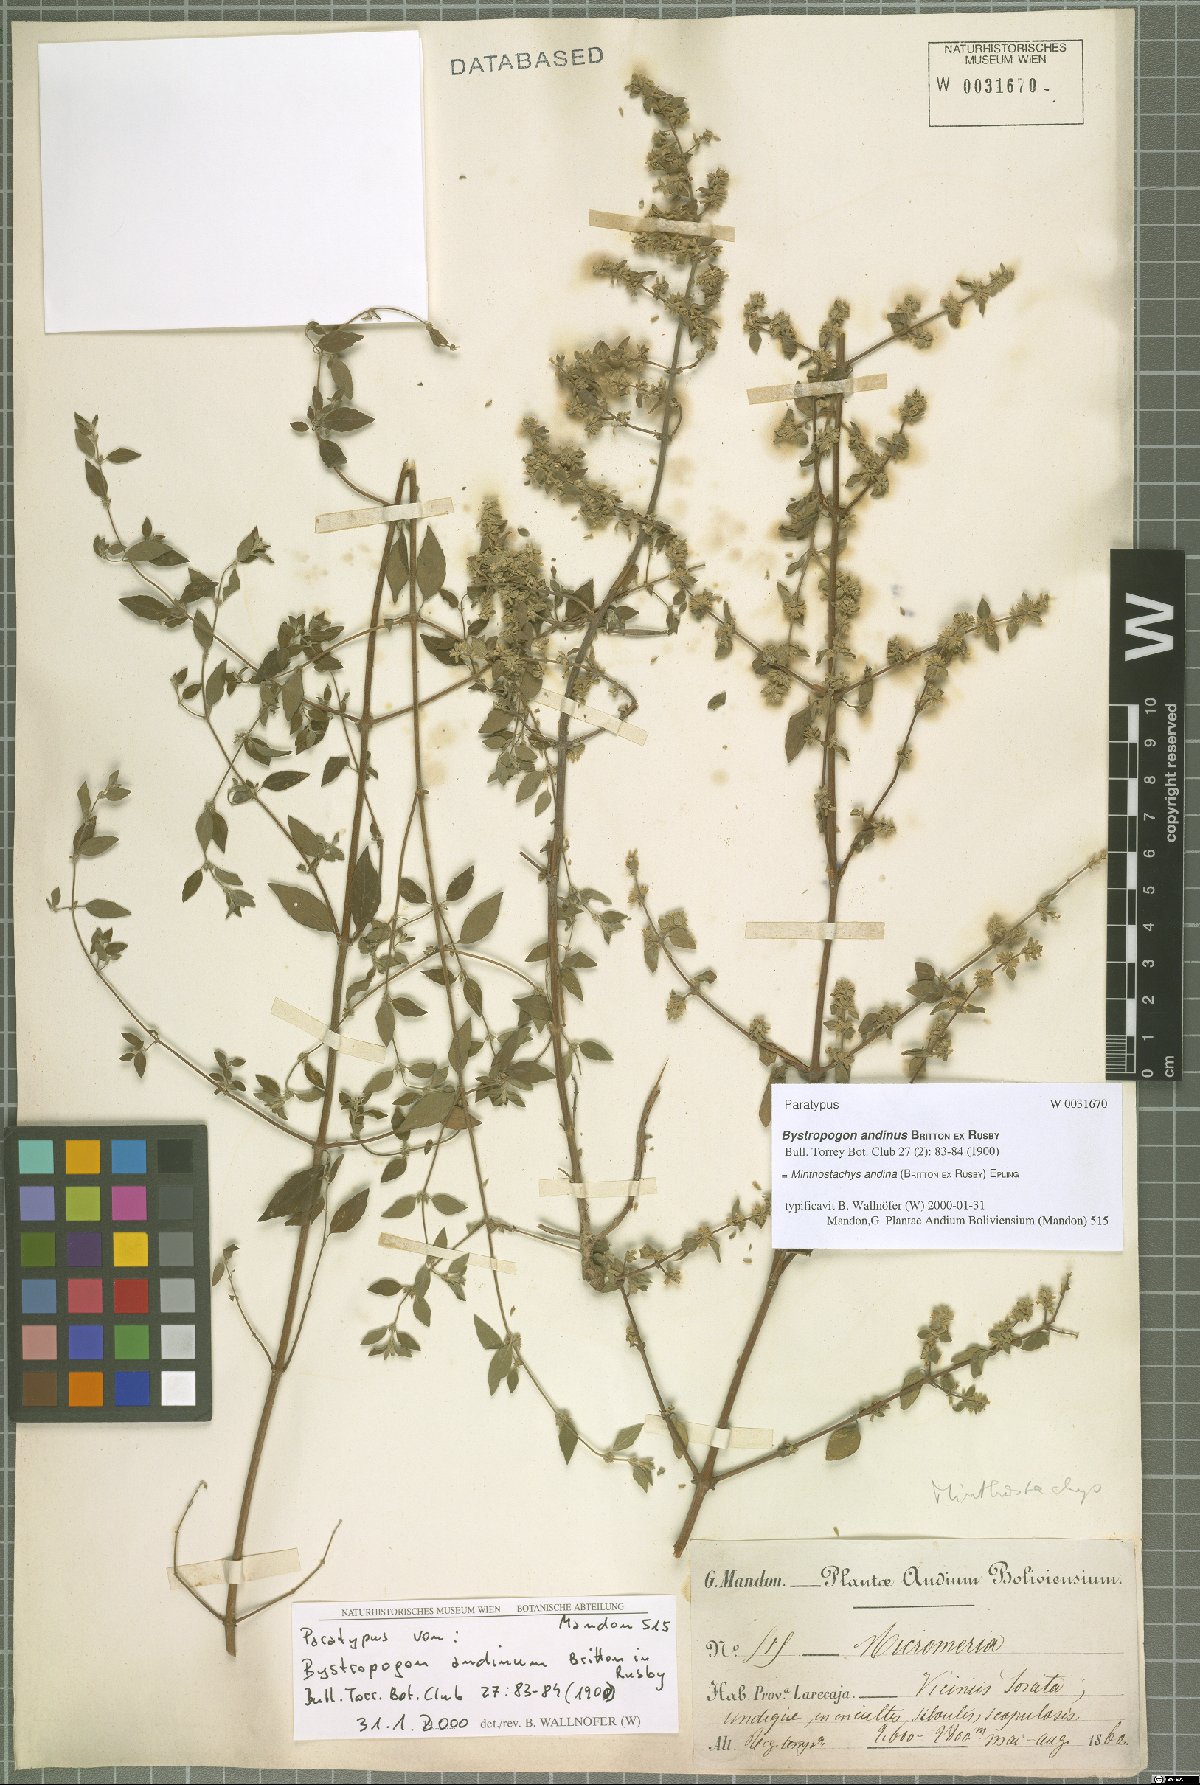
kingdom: Plantae
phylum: Tracheophyta
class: Magnoliopsida
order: Lamiales
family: Lamiaceae
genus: Minthostachys
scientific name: Minthostachys andina
